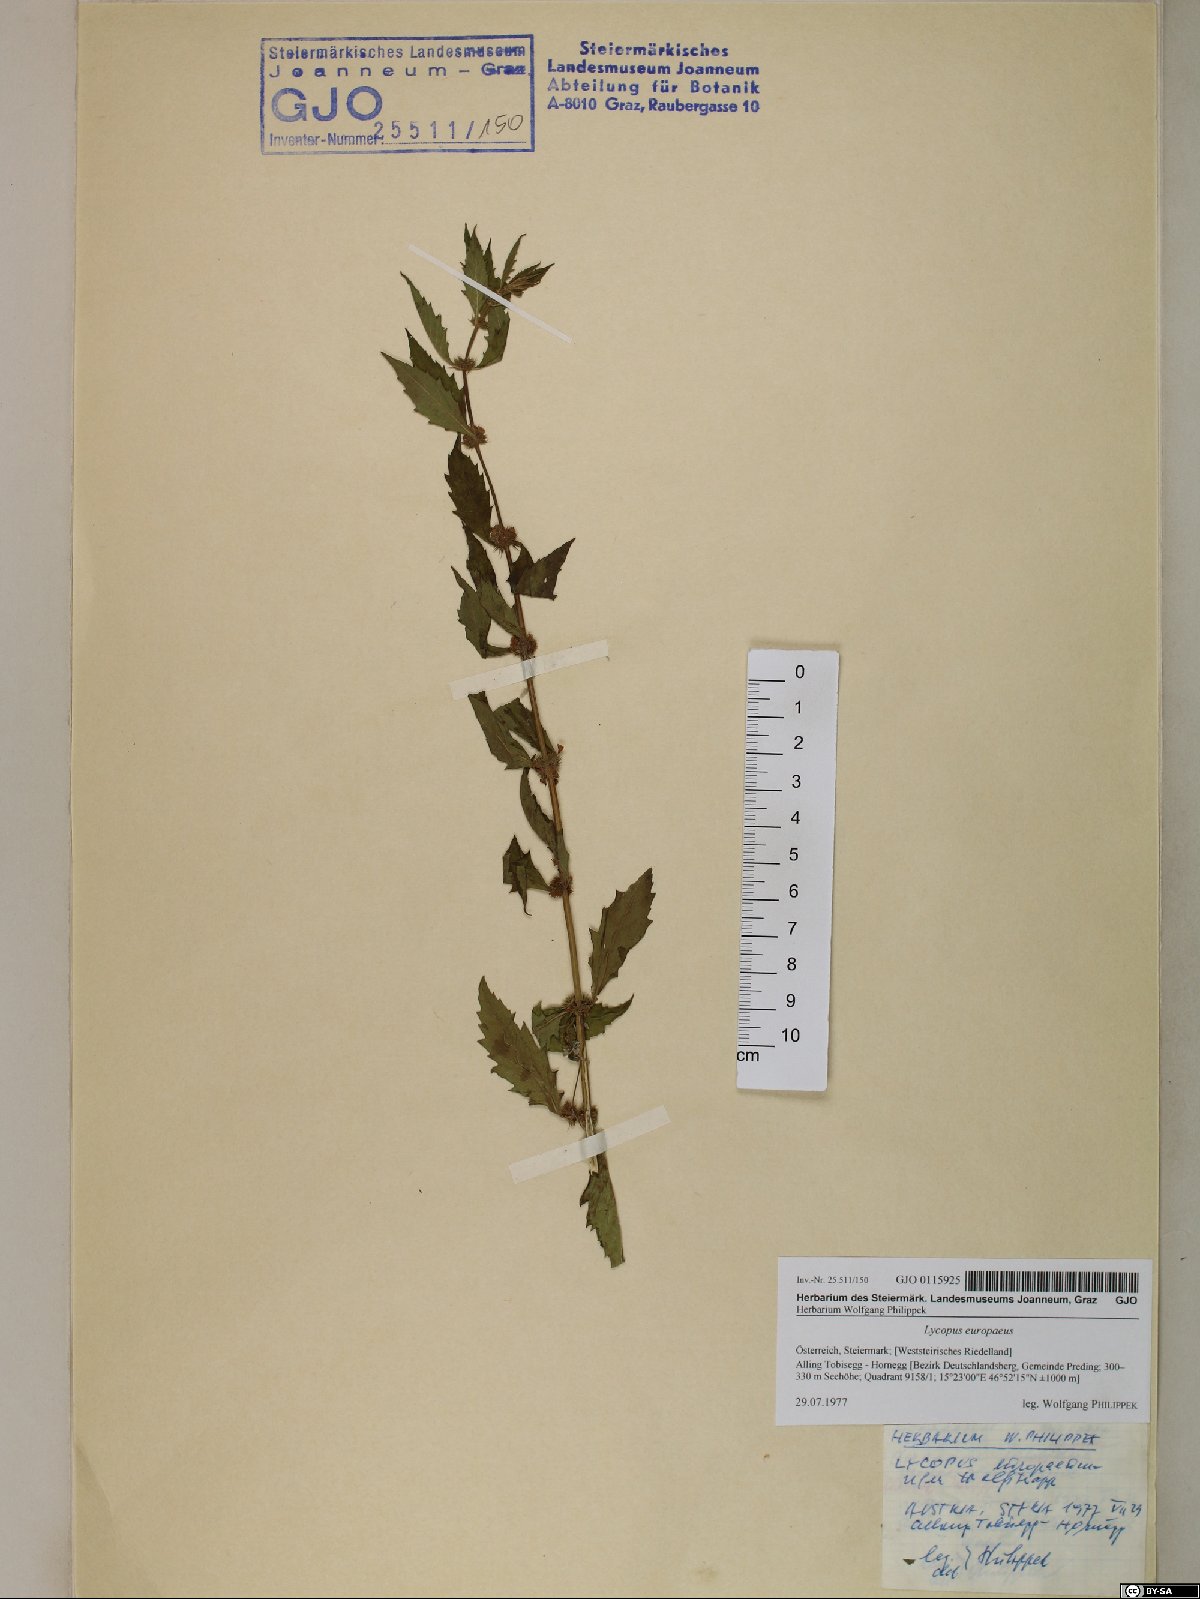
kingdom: Plantae
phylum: Tracheophyta
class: Magnoliopsida
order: Lamiales
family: Lamiaceae
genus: Lycopus
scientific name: Lycopus europaeus
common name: European bugleweed
